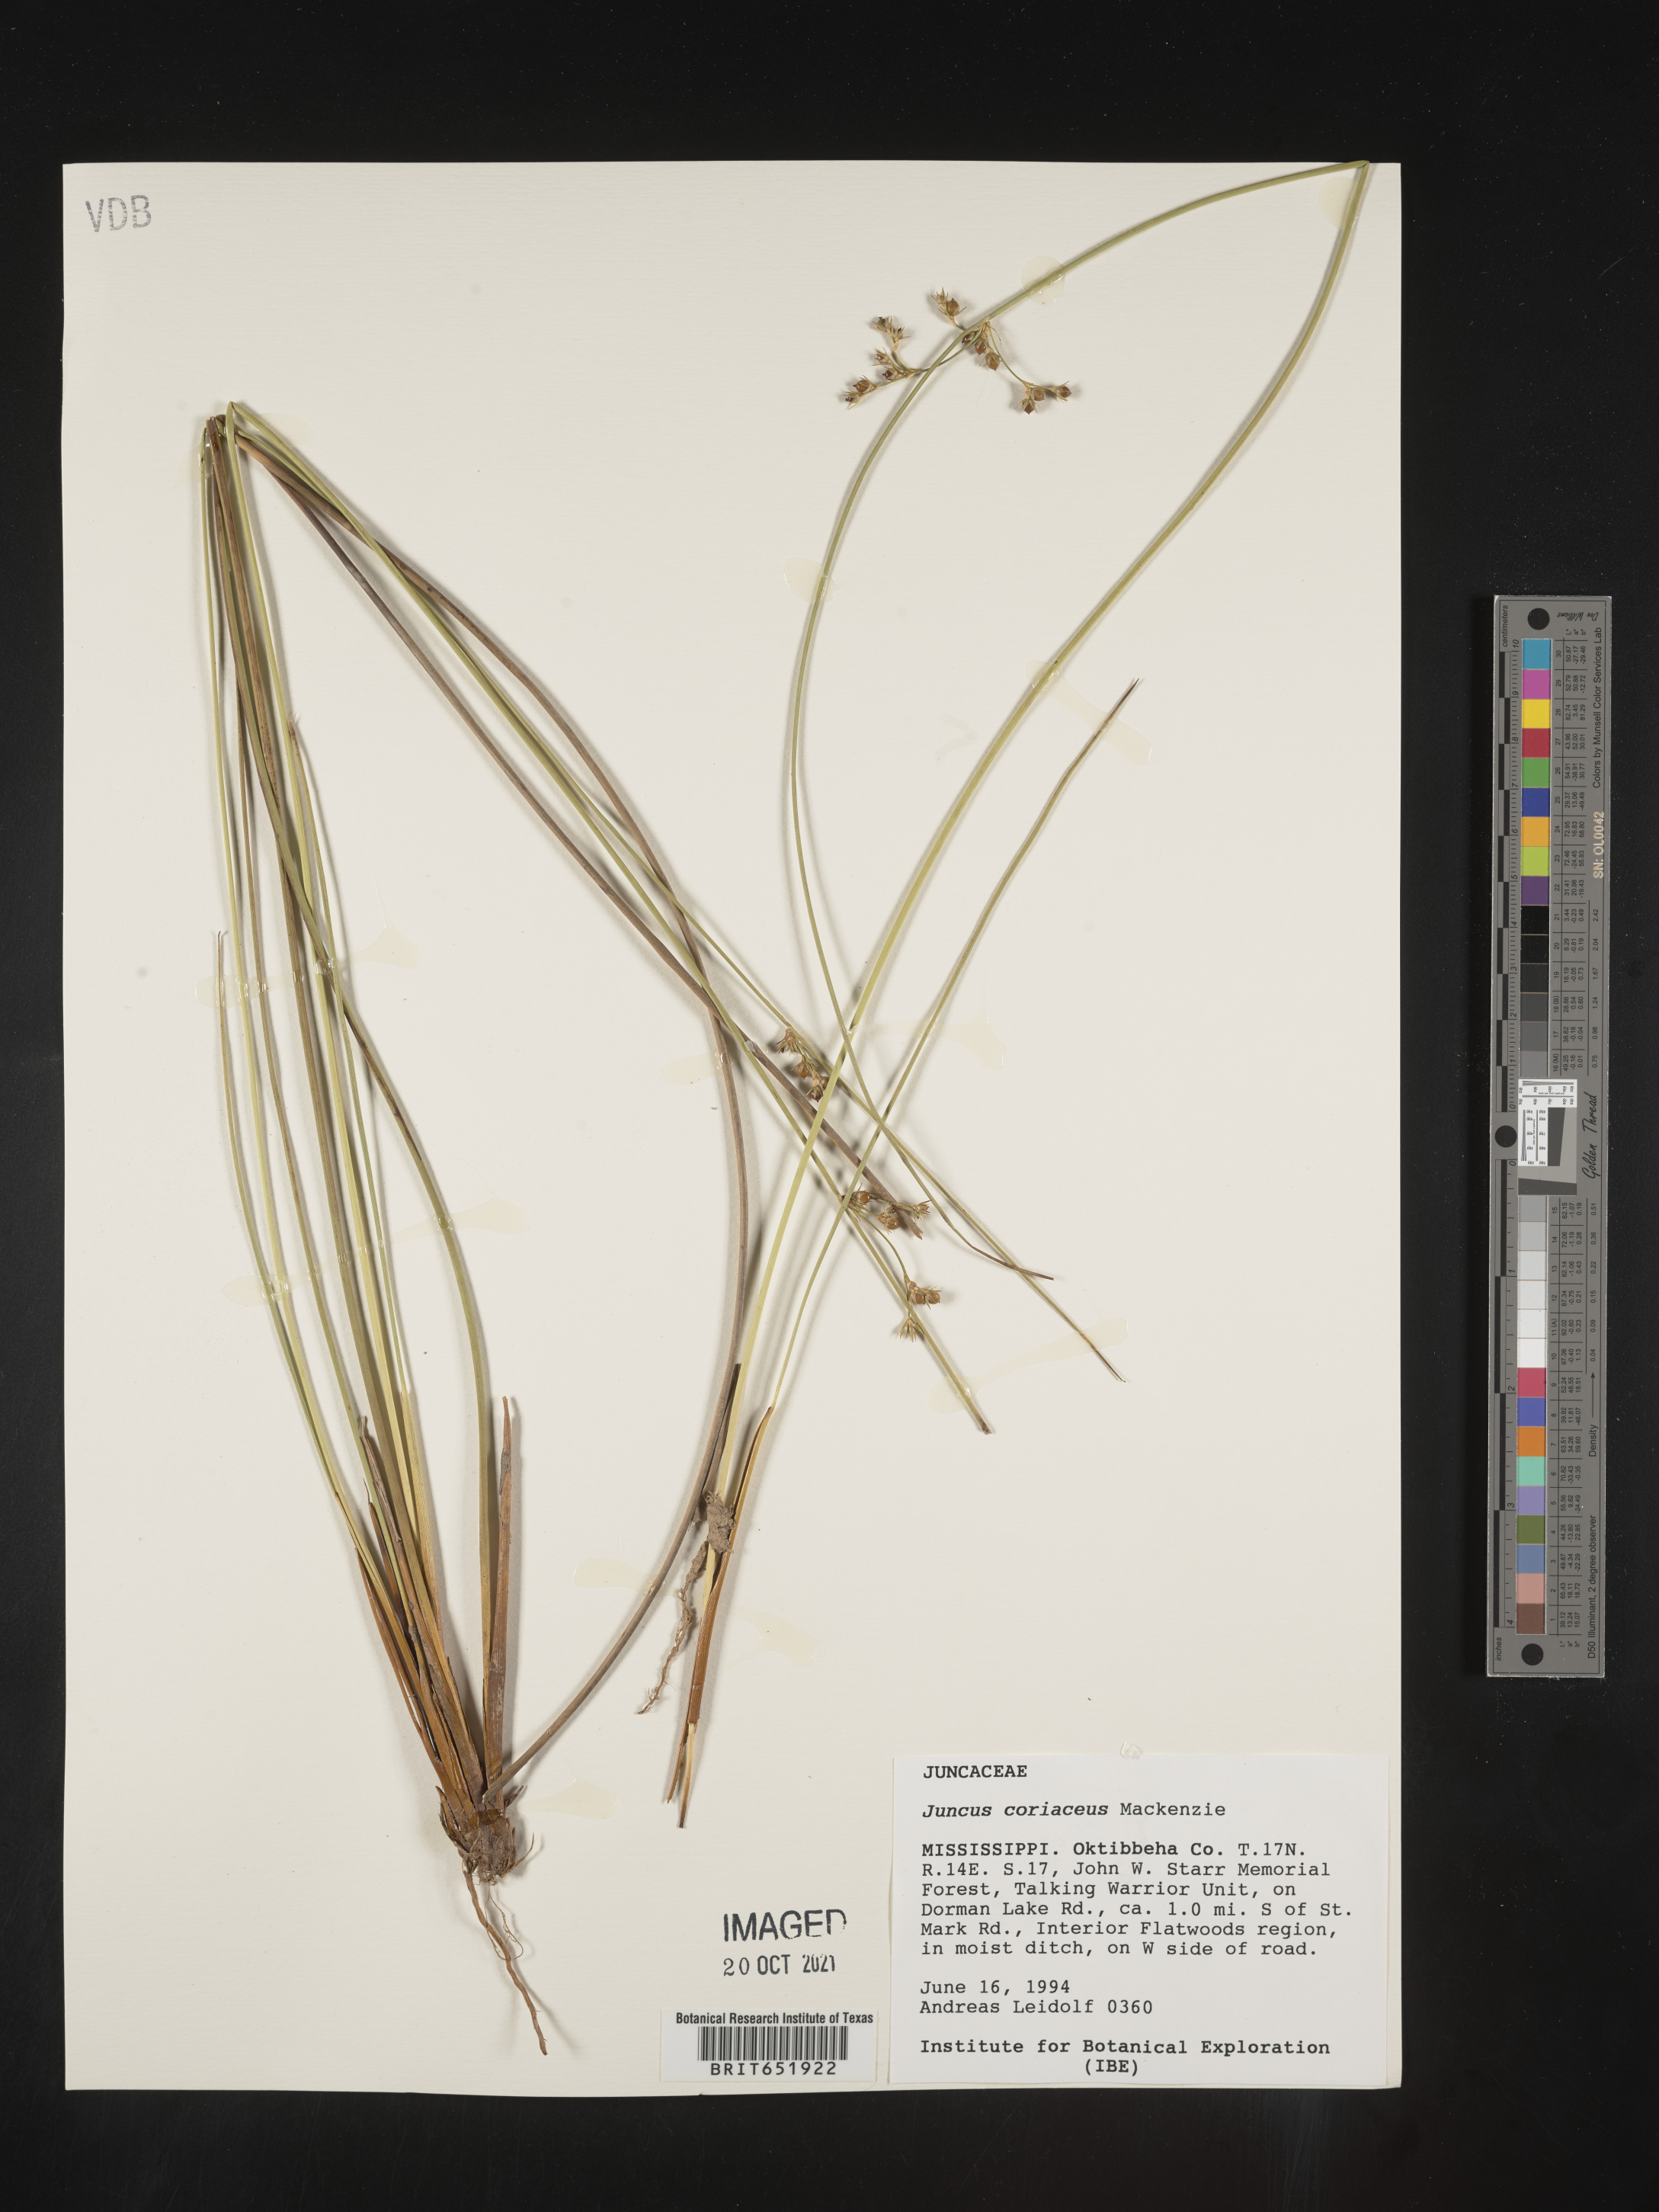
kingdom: Plantae
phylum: Tracheophyta
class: Liliopsida
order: Poales
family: Juncaceae
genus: Juncus
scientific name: Juncus coriaceus
